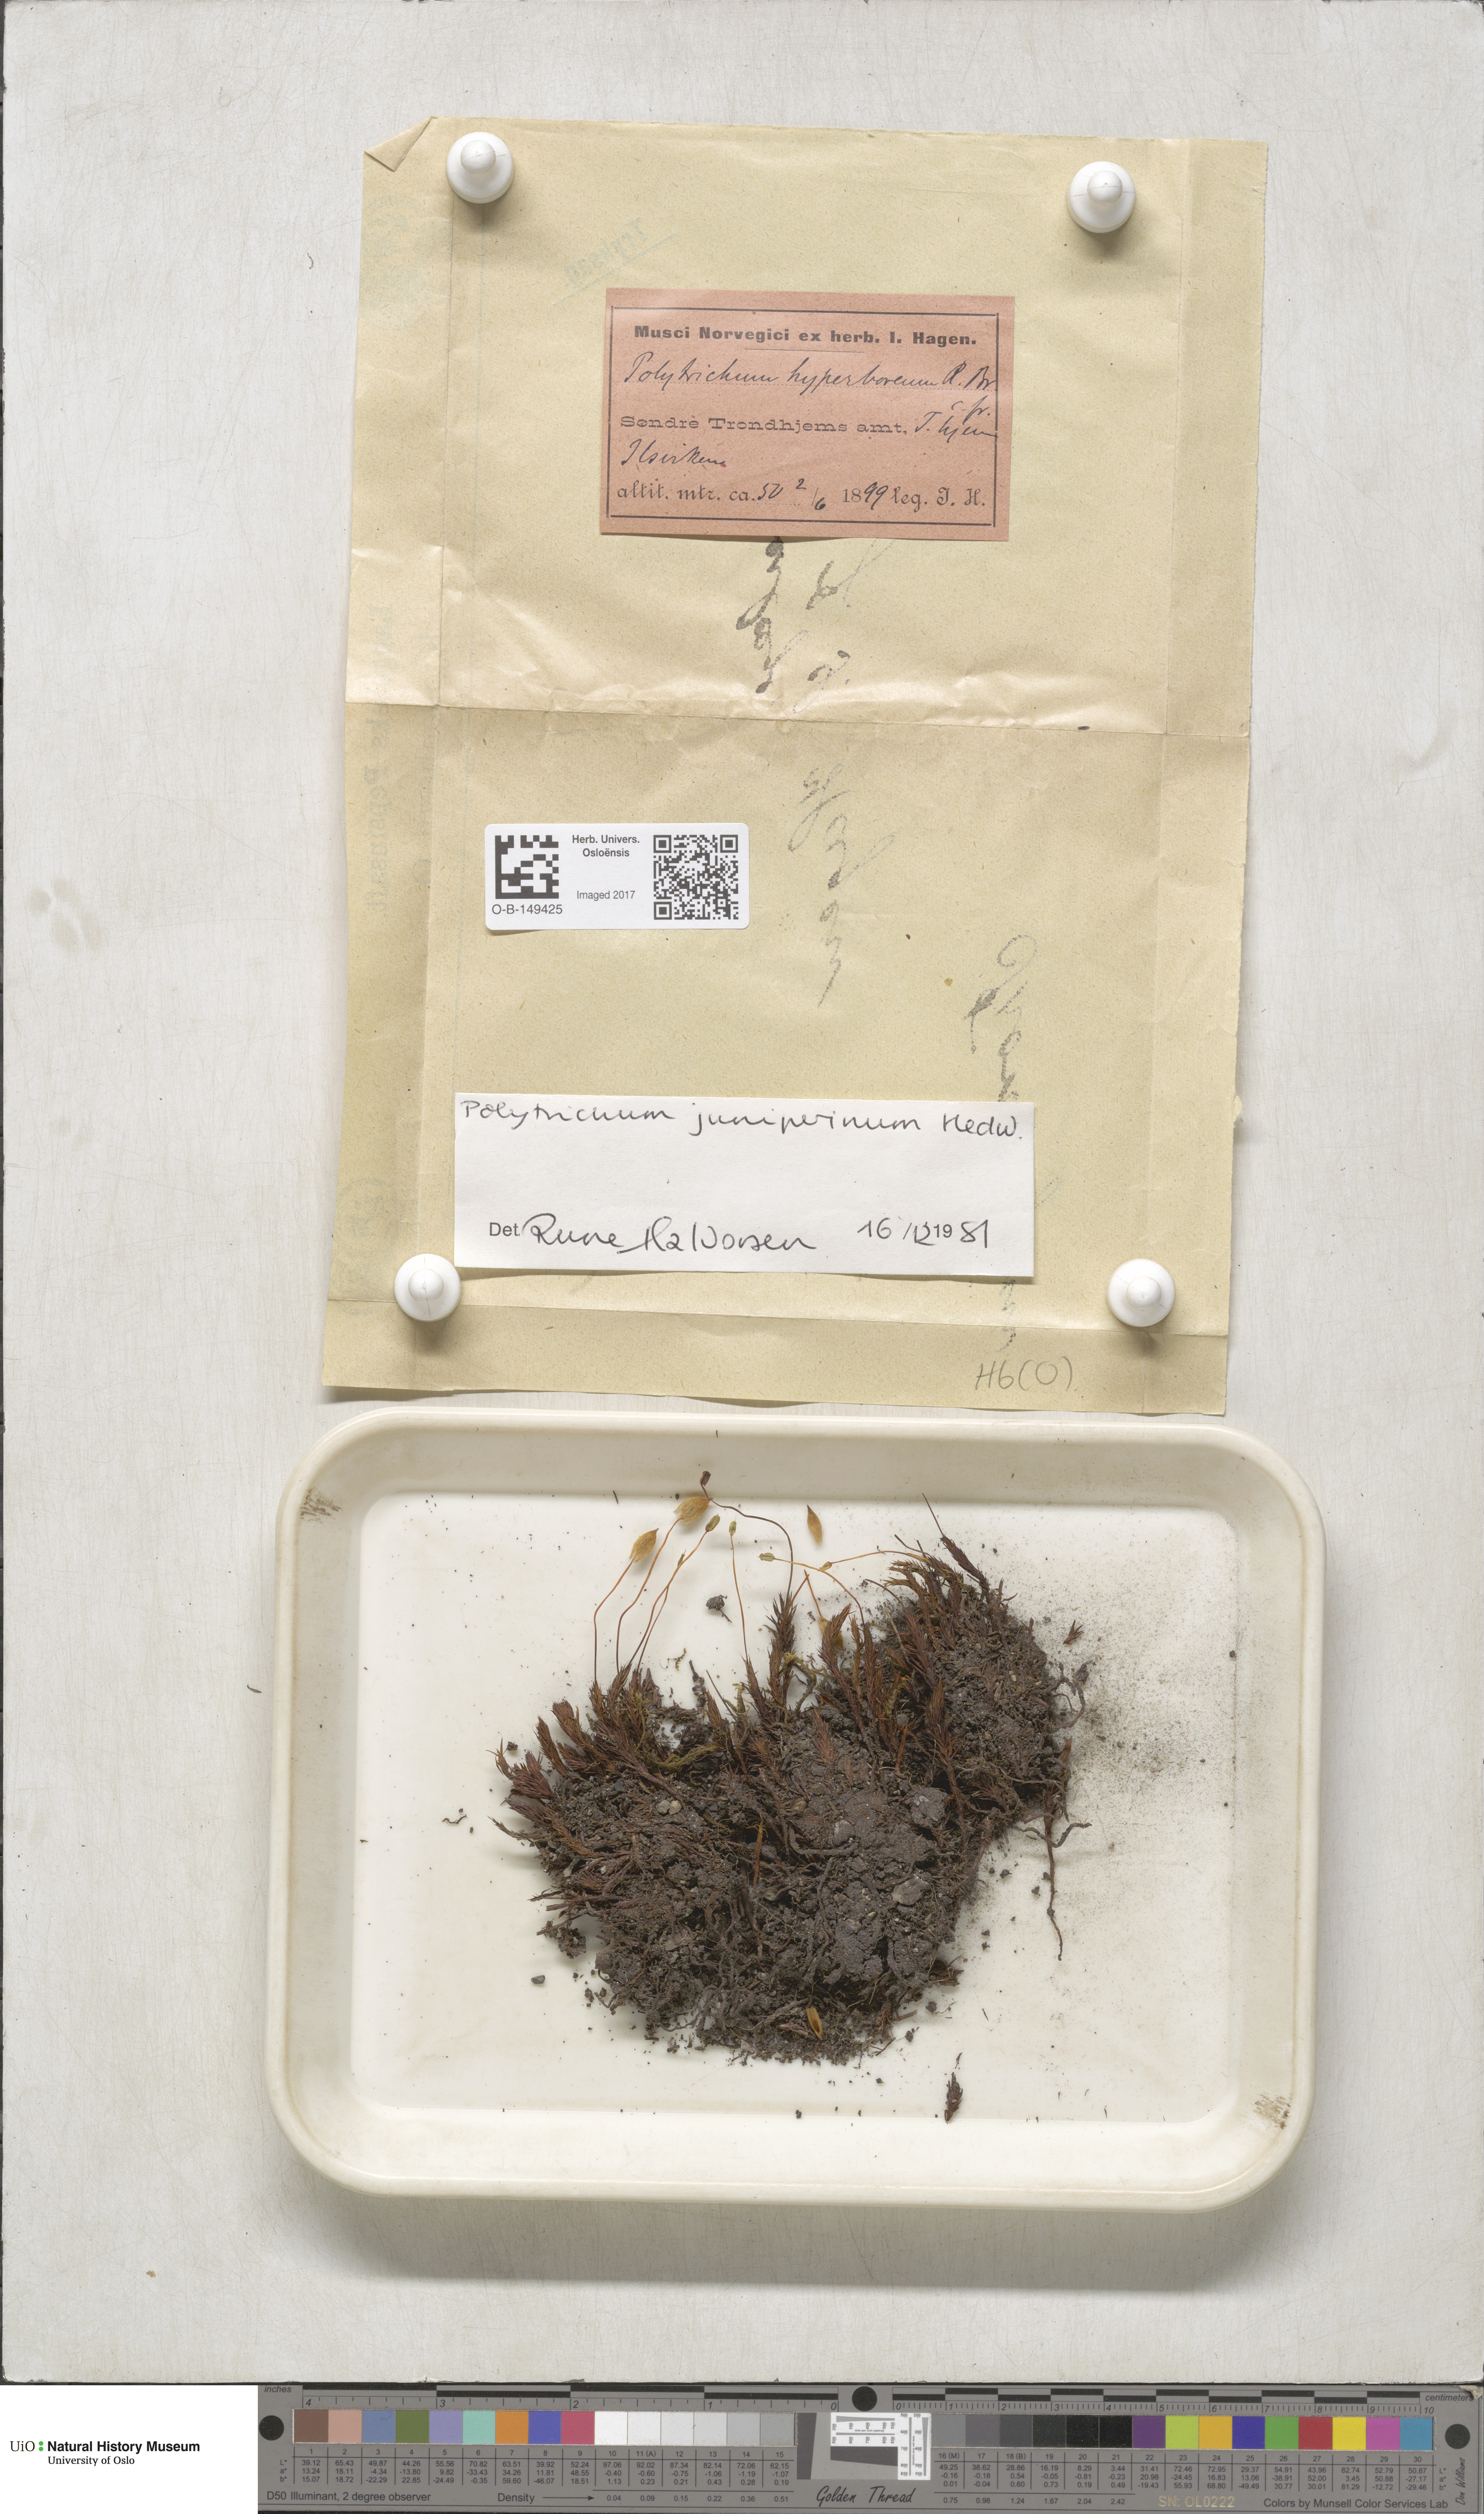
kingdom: Plantae
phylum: Bryophyta
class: Polytrichopsida
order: Polytrichales
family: Polytrichaceae
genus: Polytrichum
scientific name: Polytrichum juniperinum
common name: Juniper haircap moss
